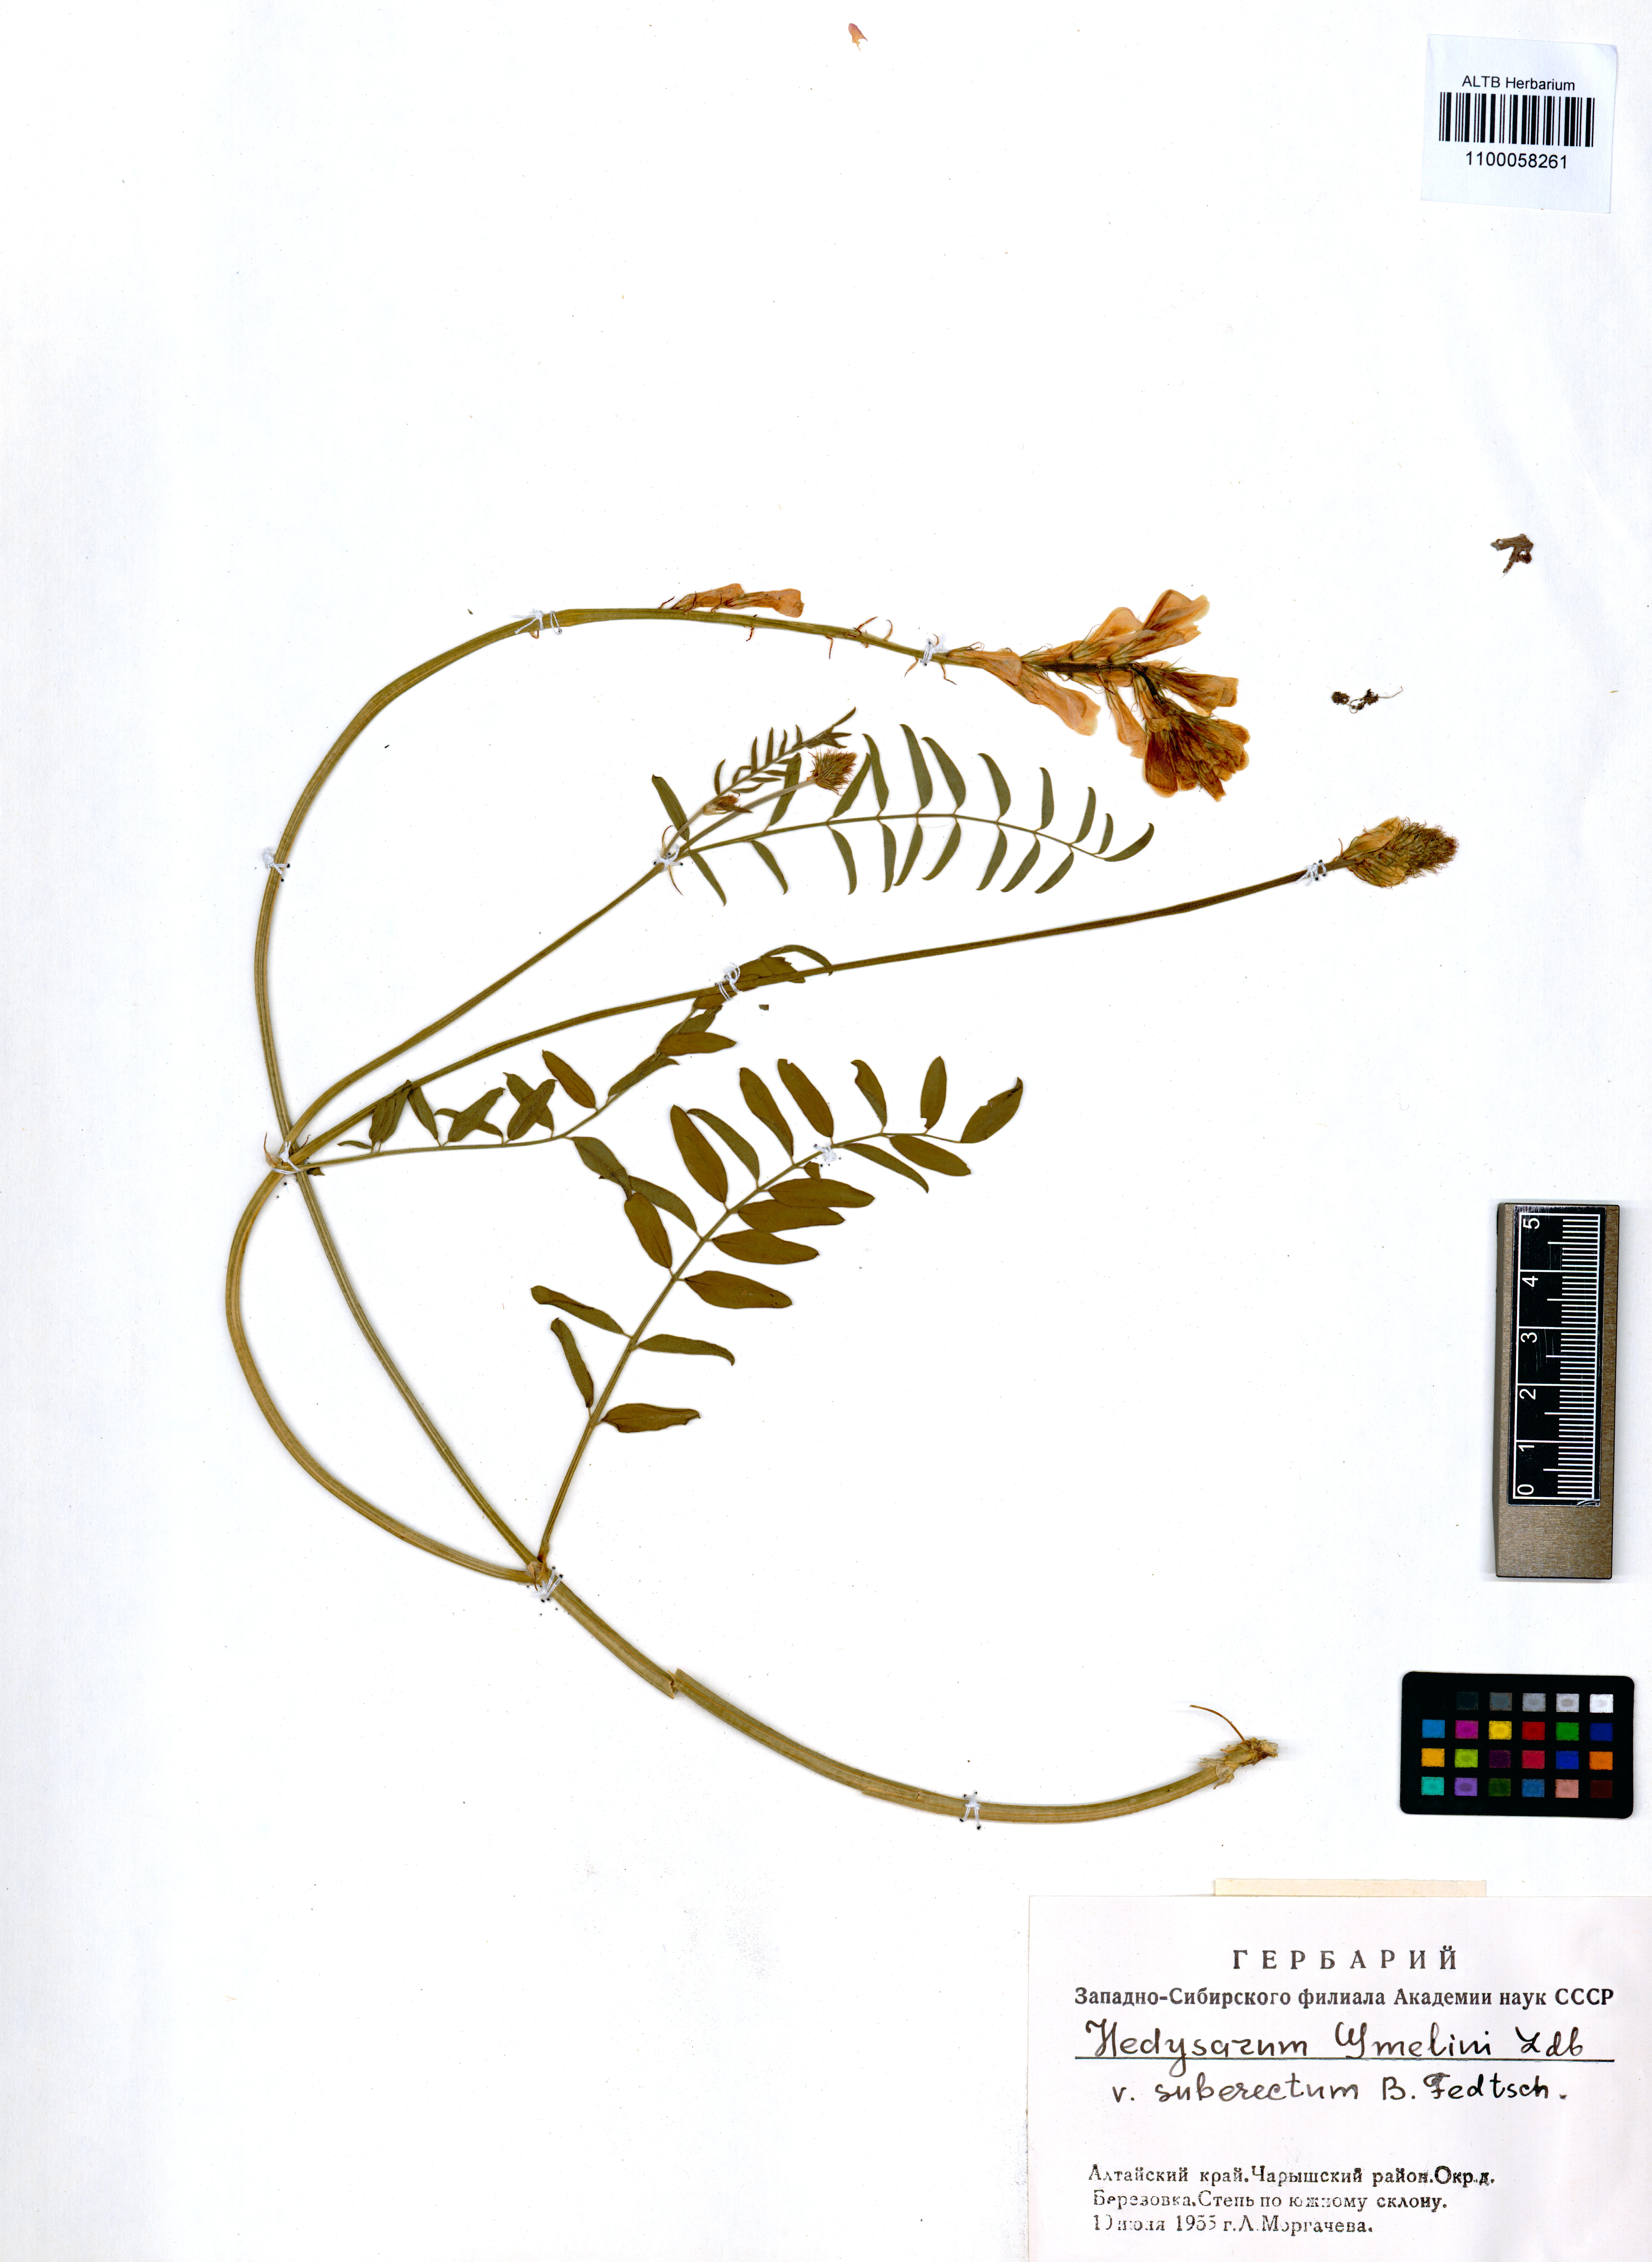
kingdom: Plantae
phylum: Tracheophyta
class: Magnoliopsida
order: Fabales
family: Fabaceae
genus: Hedysarum
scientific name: Hedysarum gmelinii
